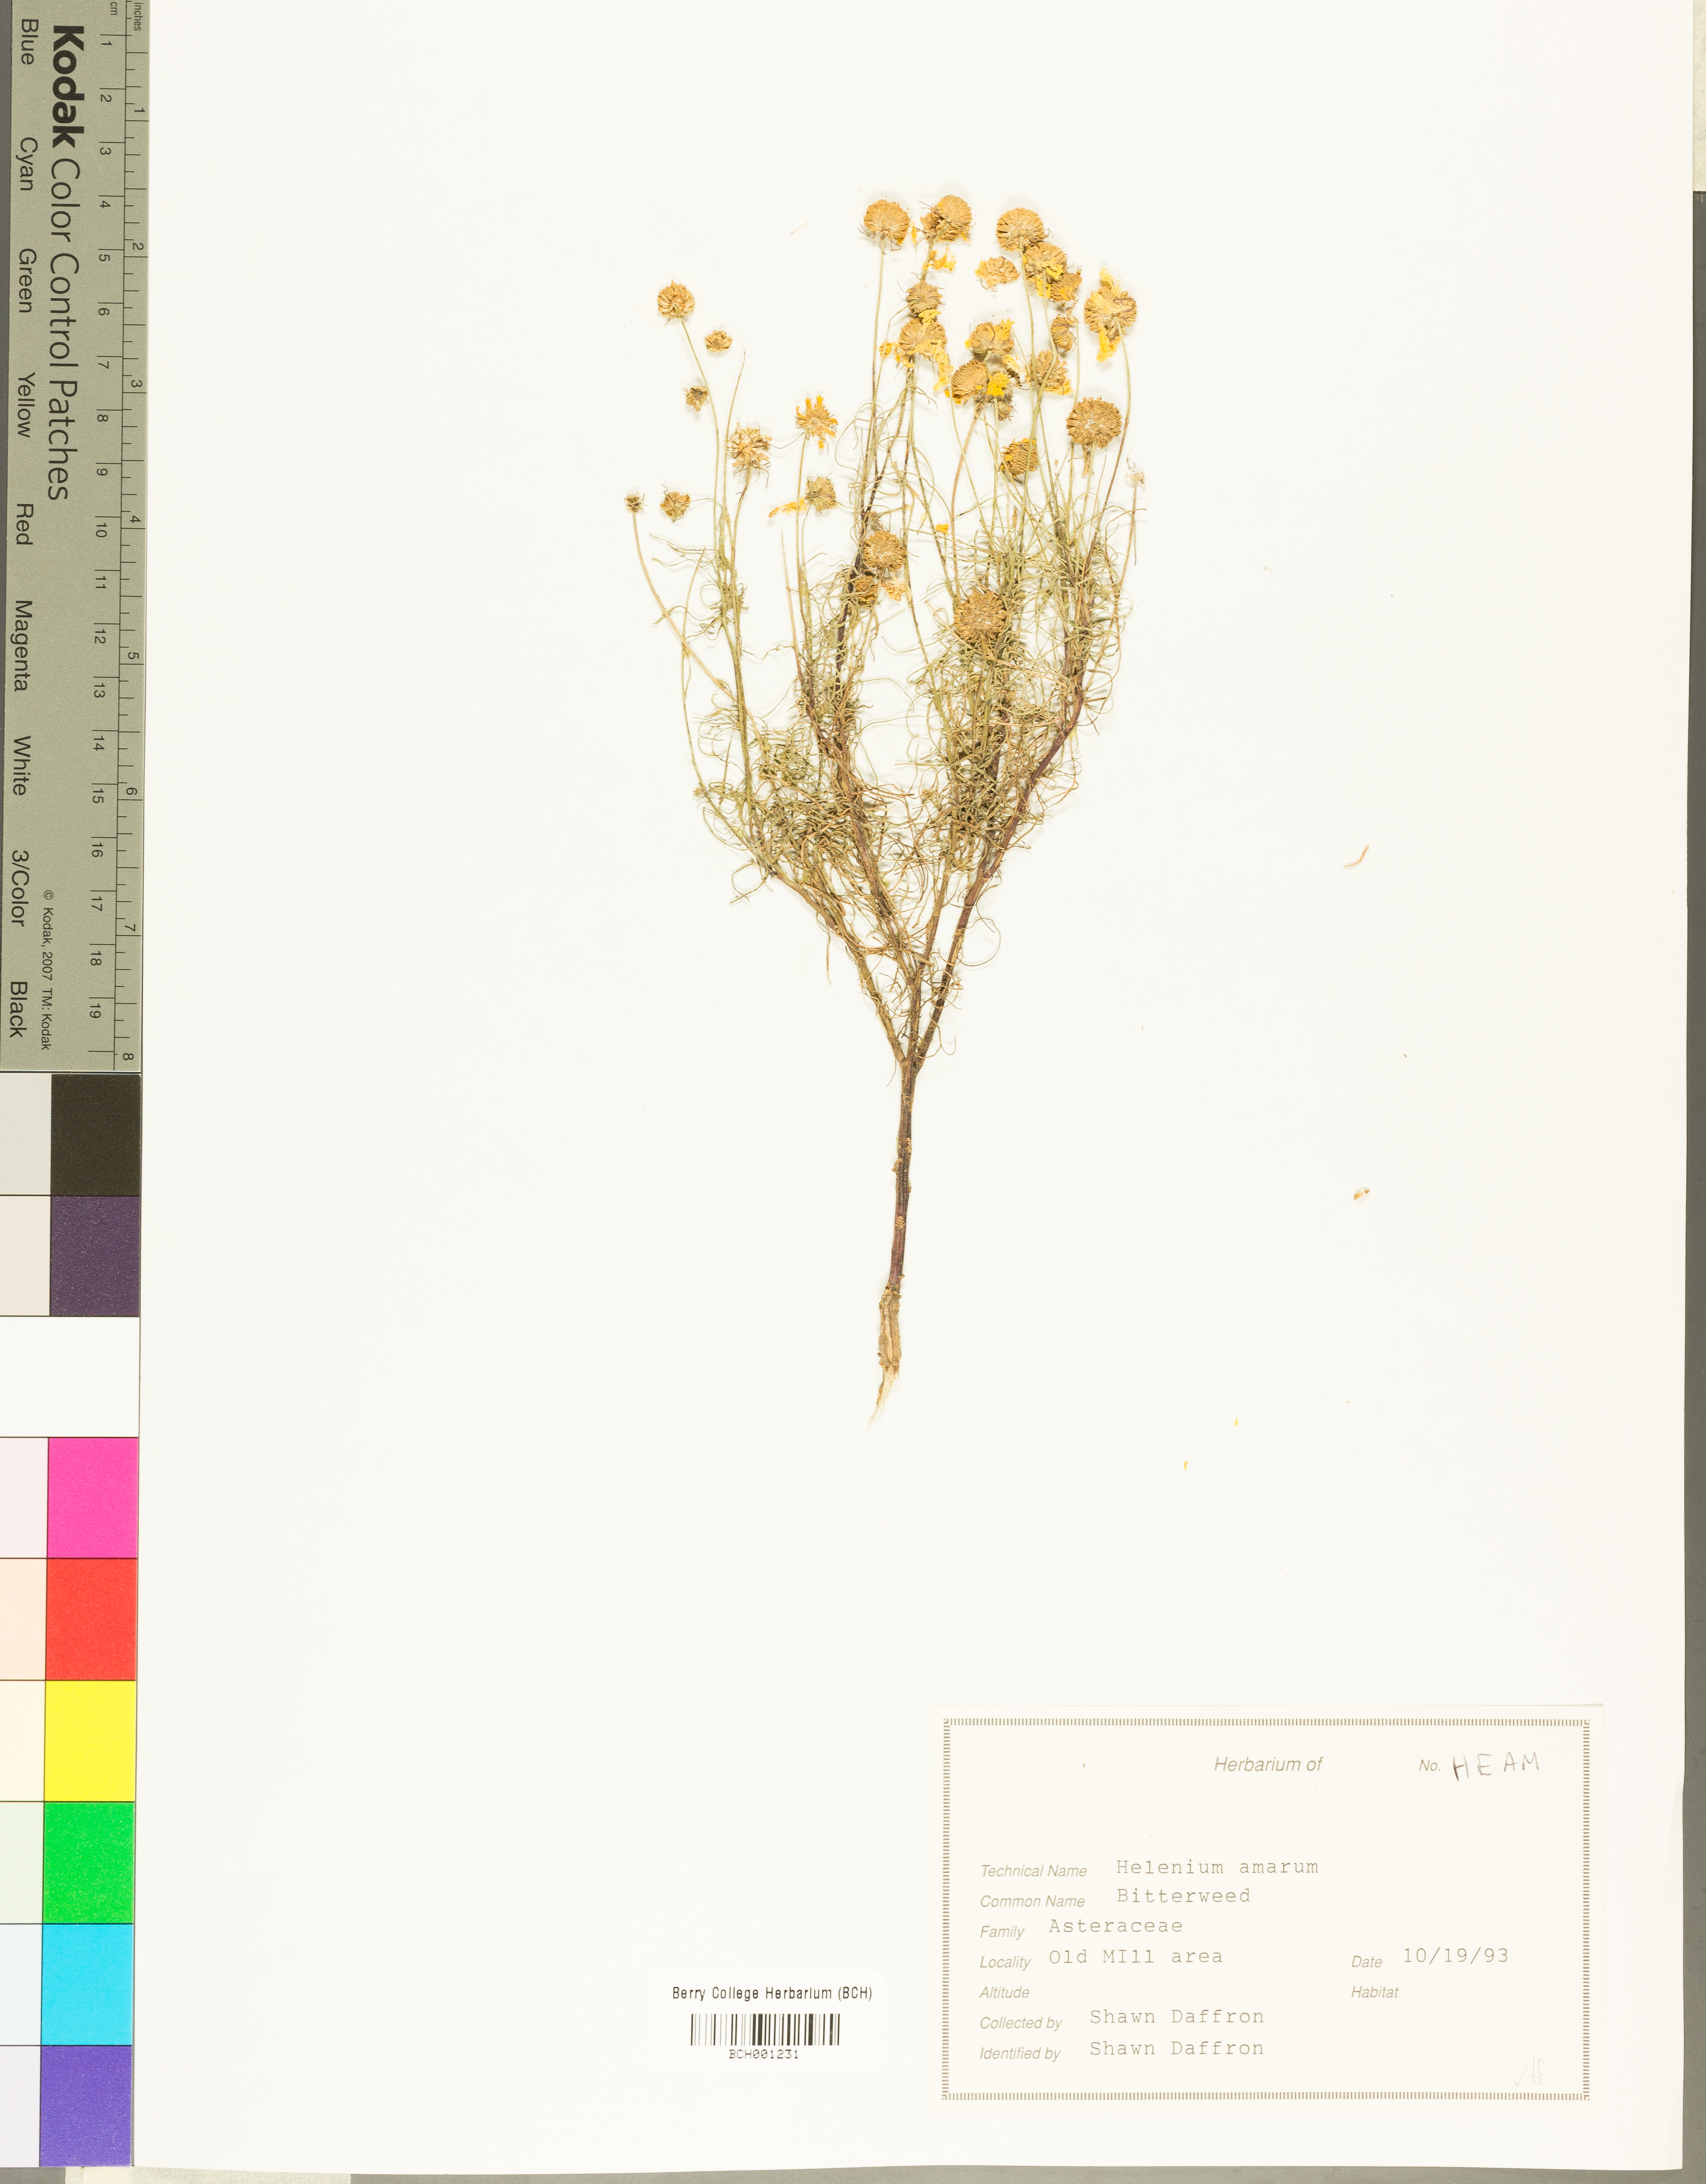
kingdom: Plantae
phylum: Tracheophyta
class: Magnoliopsida
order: Asterales
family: Asteraceae
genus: Helenium
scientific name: Helenium amarum
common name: Bitter sneezeweed
